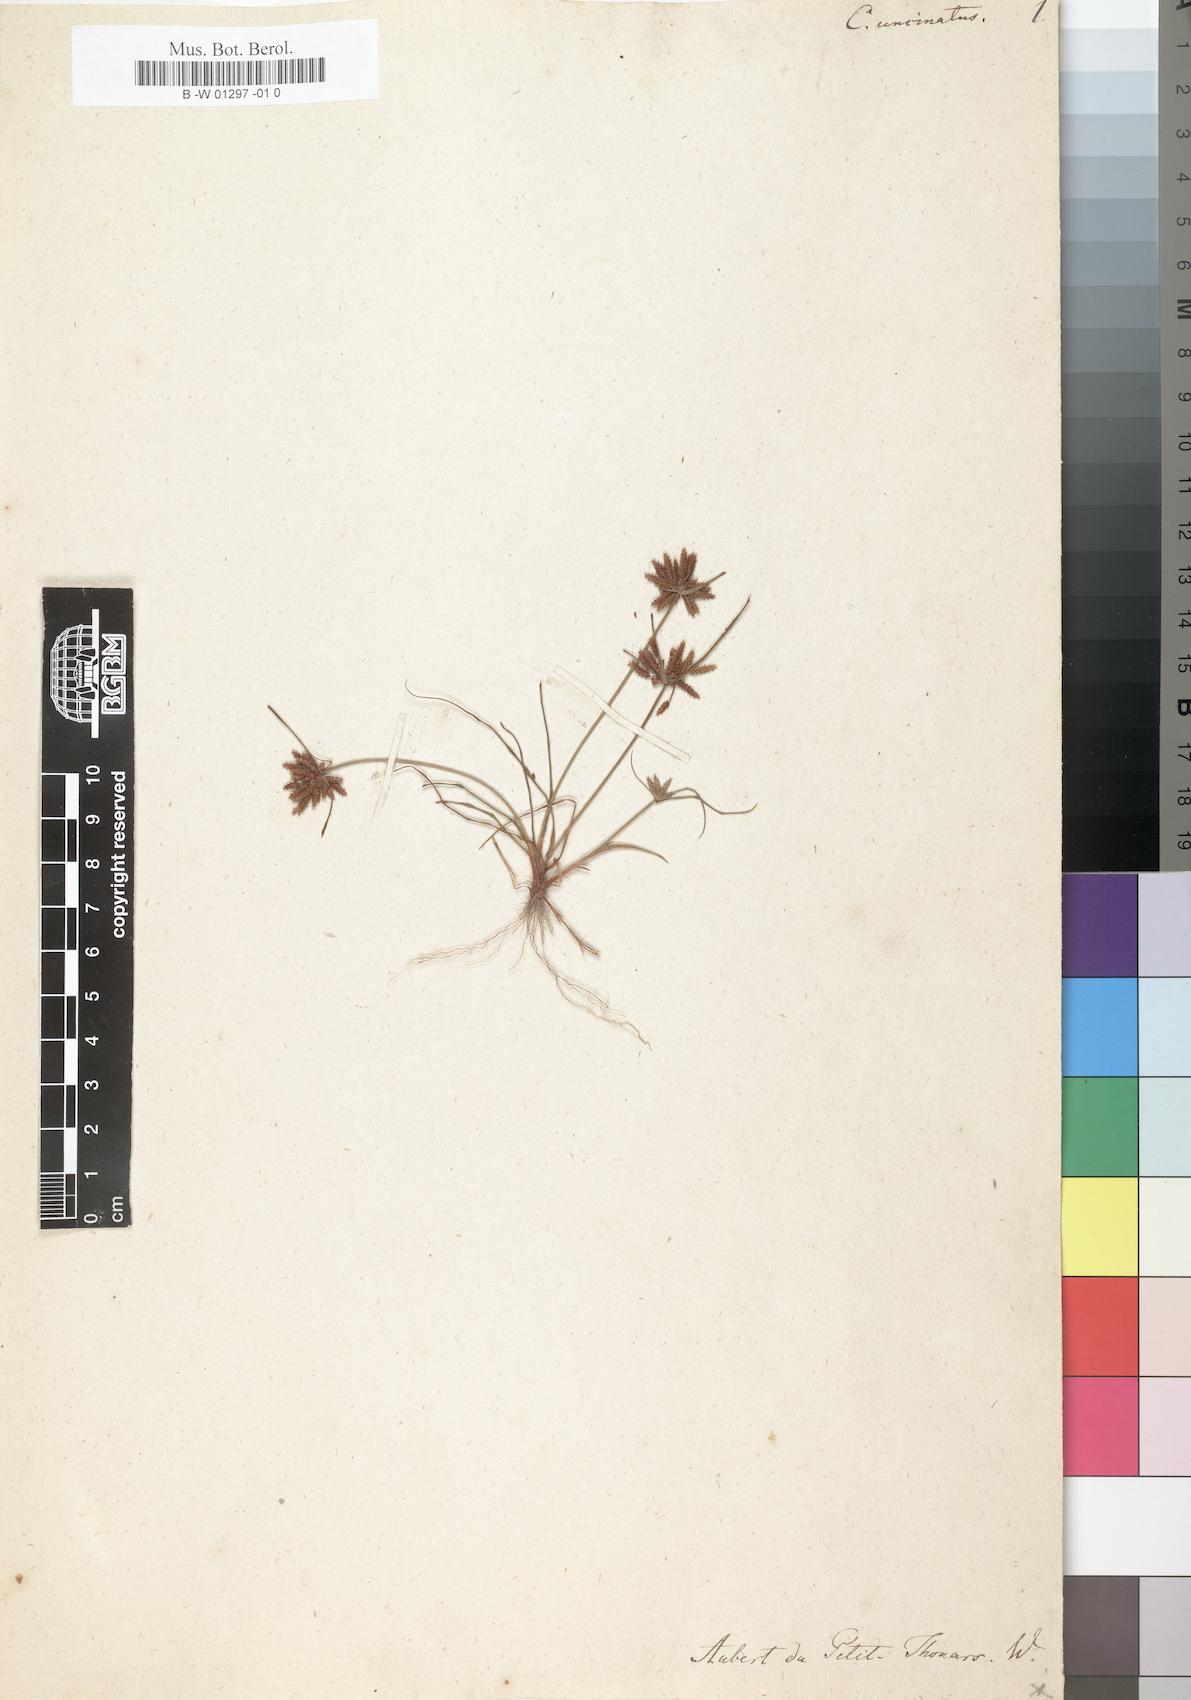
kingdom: Plantae
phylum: Tracheophyta
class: Liliopsida
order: Poales
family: Cyperaceae
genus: Cyperus
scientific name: Cyperus
